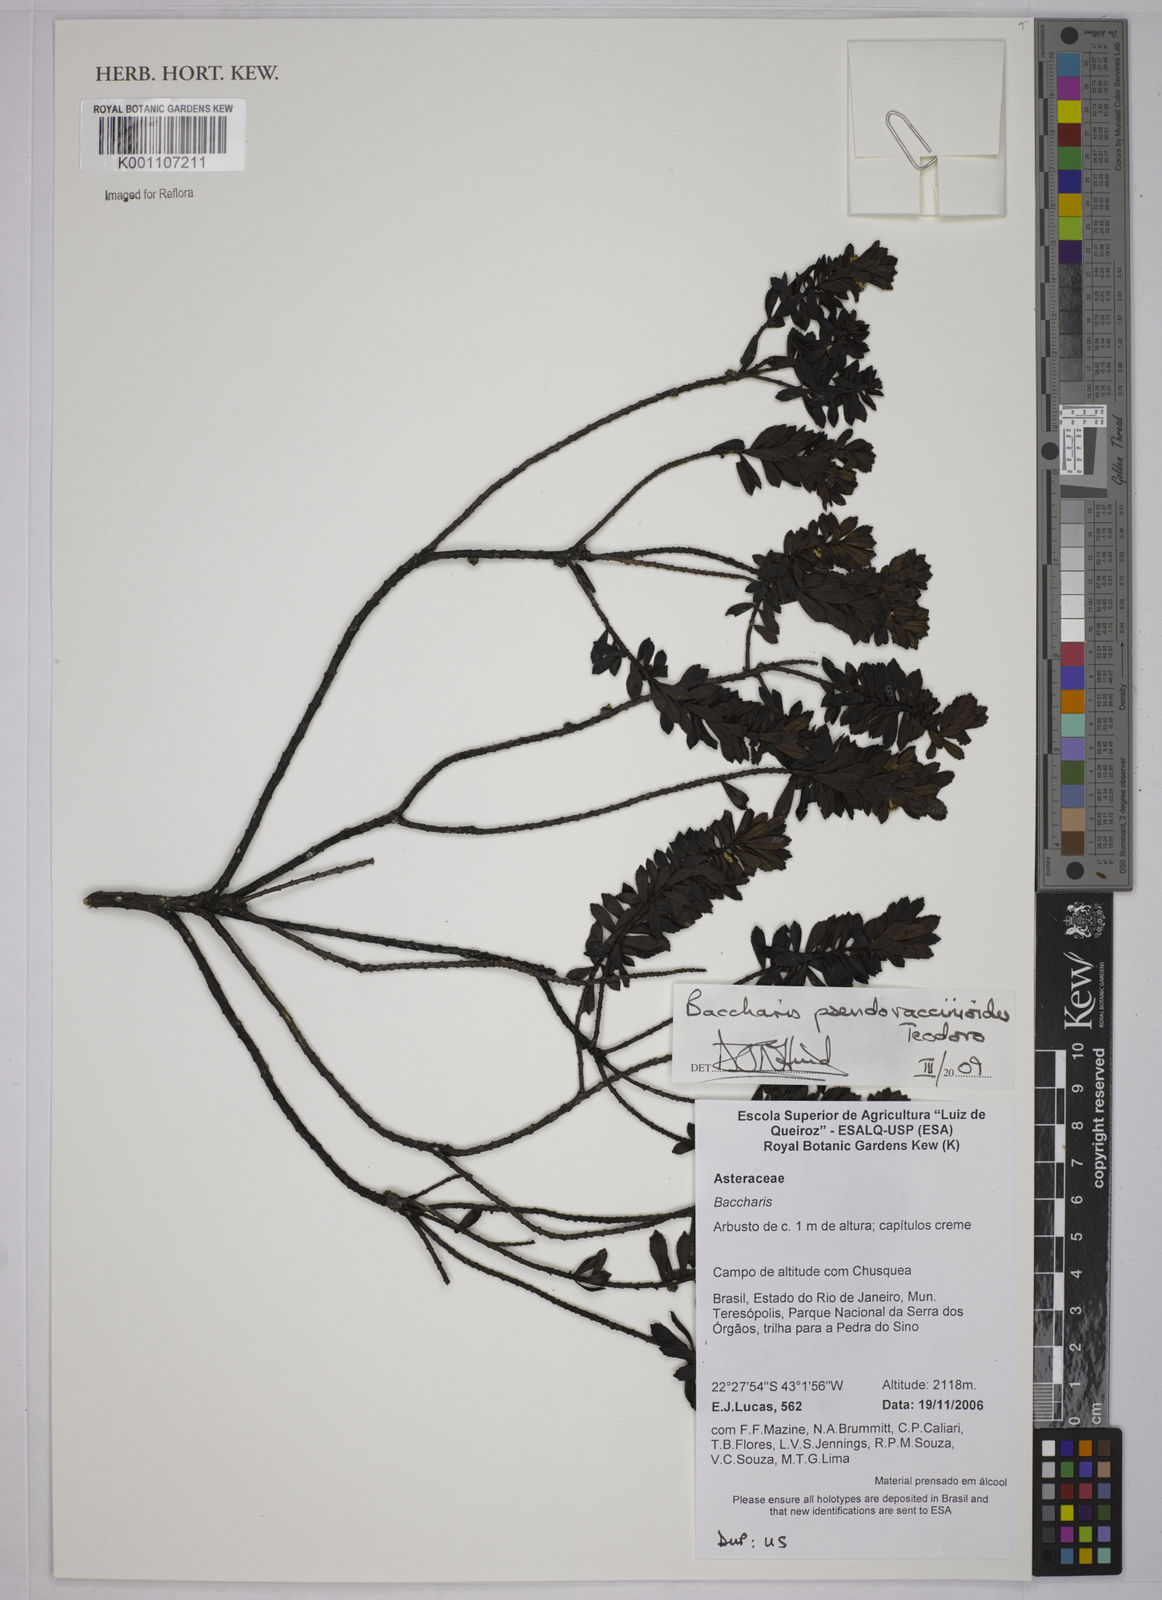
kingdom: Plantae
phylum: Tracheophyta
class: Magnoliopsida
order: Asterales
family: Asteraceae
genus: Baccharis
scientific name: Baccharis pseudovaccinioides
